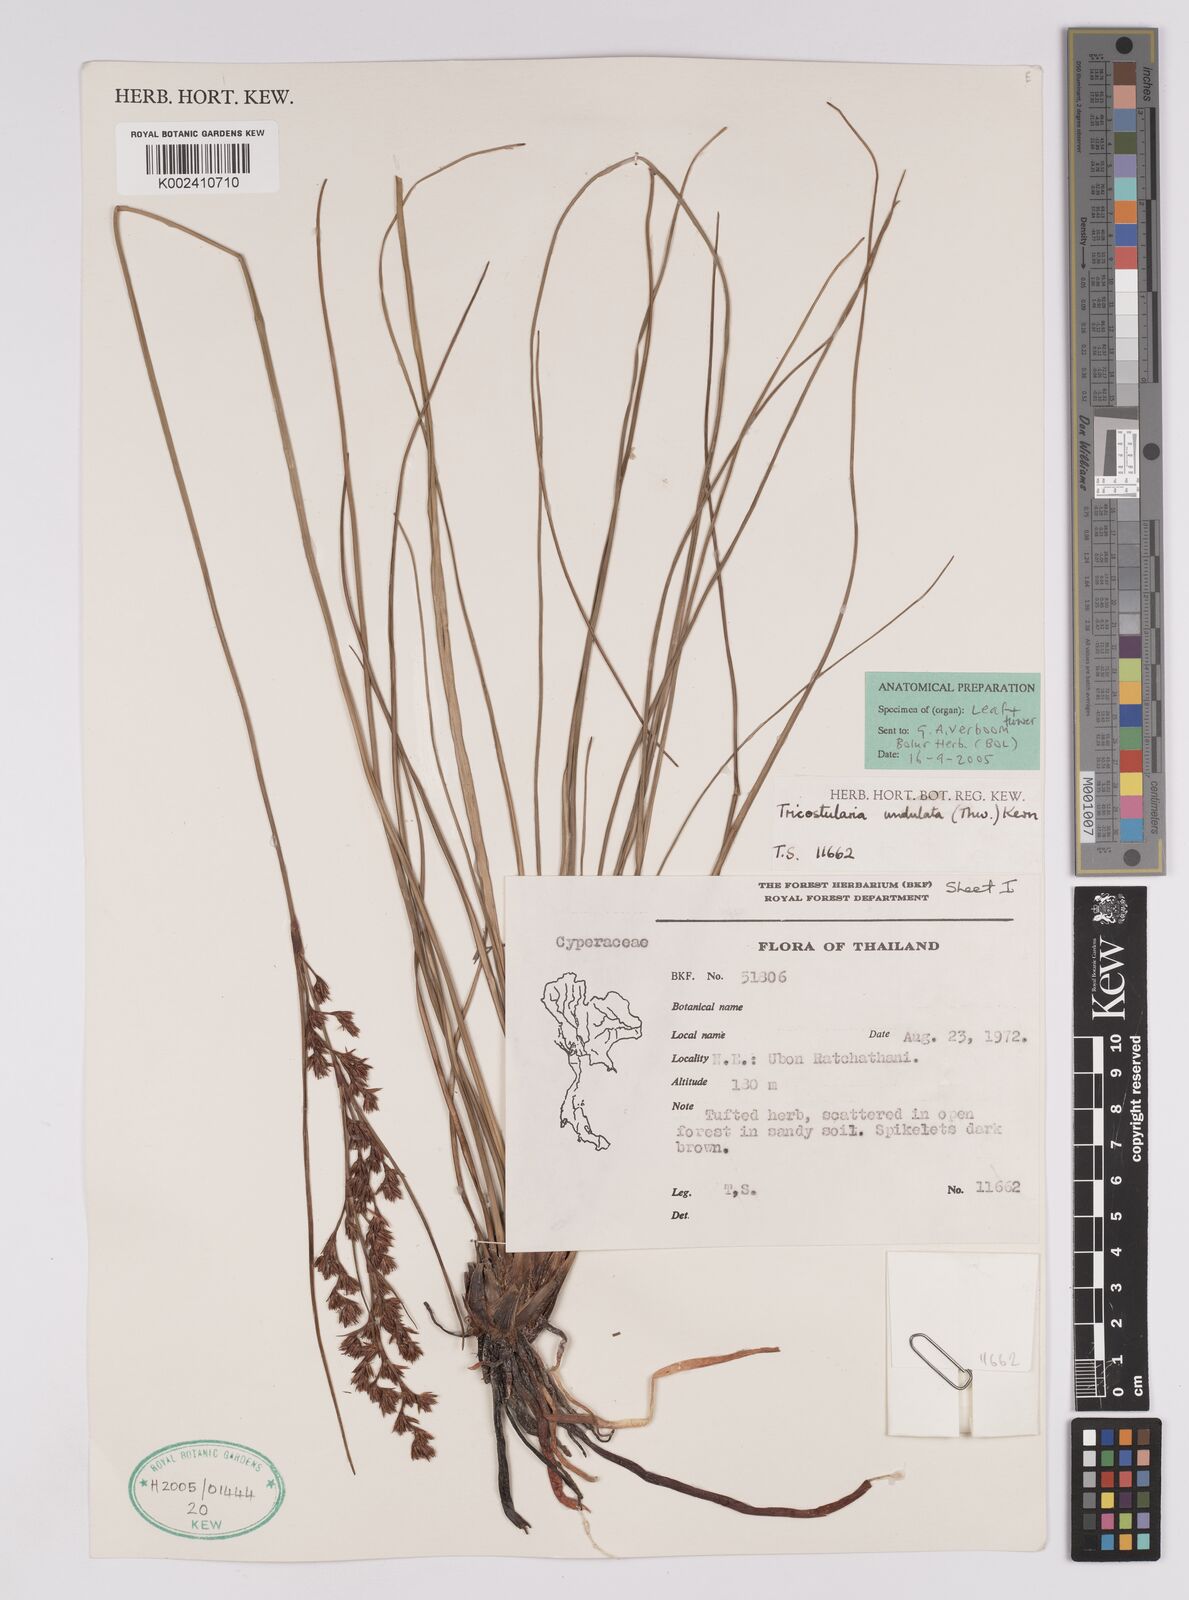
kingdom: Plantae
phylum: Tracheophyta
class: Liliopsida
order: Poales
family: Cyperaceae
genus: Anthelepis
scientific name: Anthelepis undulata
